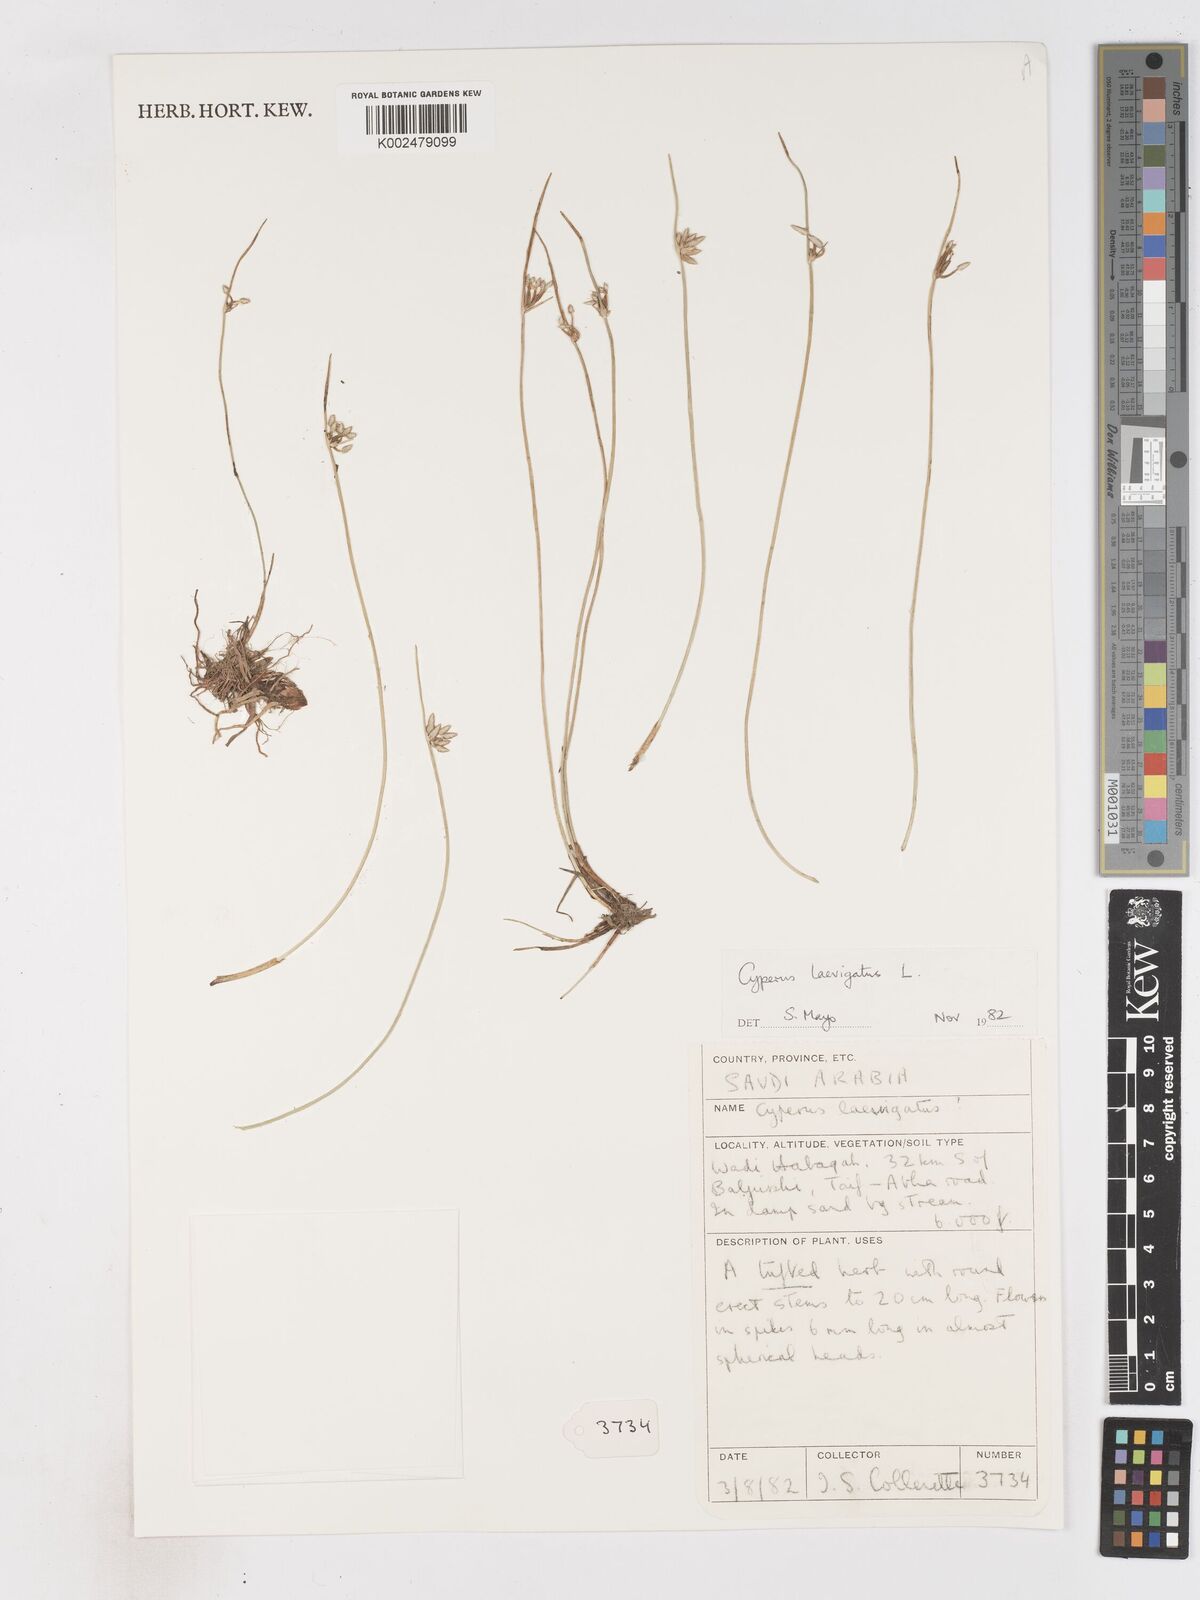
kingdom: Plantae
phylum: Tracheophyta
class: Liliopsida
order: Poales
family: Cyperaceae
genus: Cyperus
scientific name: Cyperus laevigatus
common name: Smooth flat sedge
